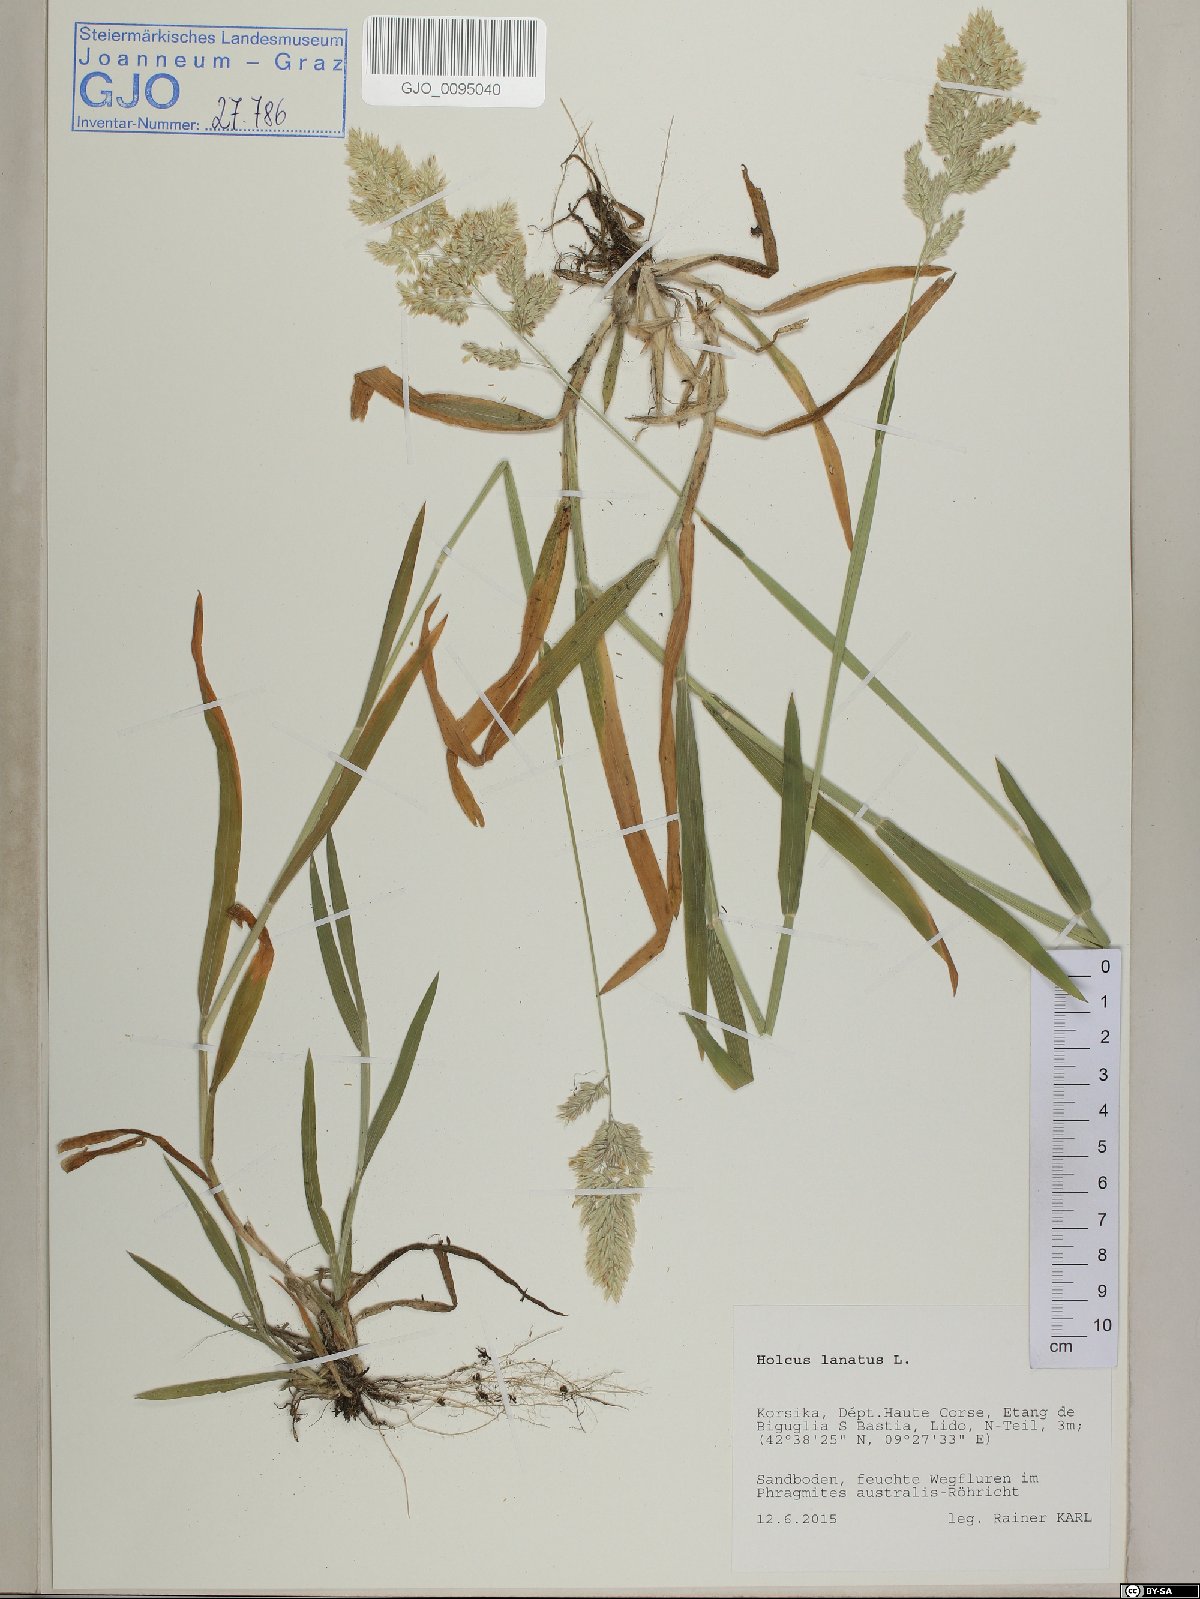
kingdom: Plantae
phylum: Tracheophyta
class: Liliopsida
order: Poales
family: Poaceae
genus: Holcus
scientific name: Holcus lanatus
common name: Yorkshire-fog
